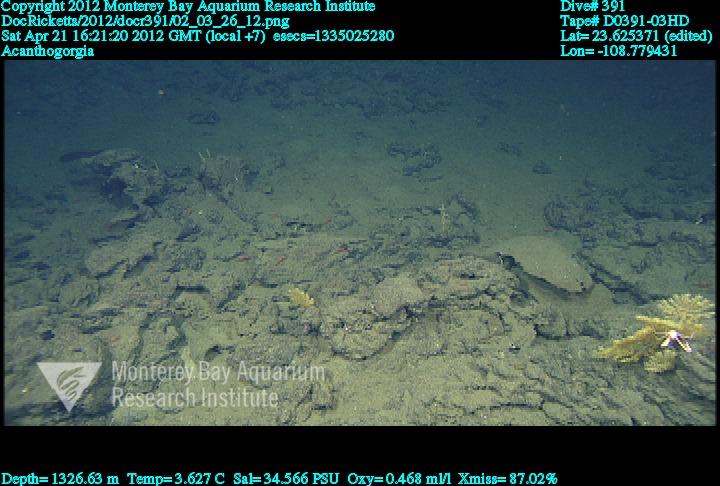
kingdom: Animalia
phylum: Cnidaria
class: Anthozoa
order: Malacalcyonacea
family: Paramuriceidae
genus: Acanthogorgia
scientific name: Acanthogorgia
